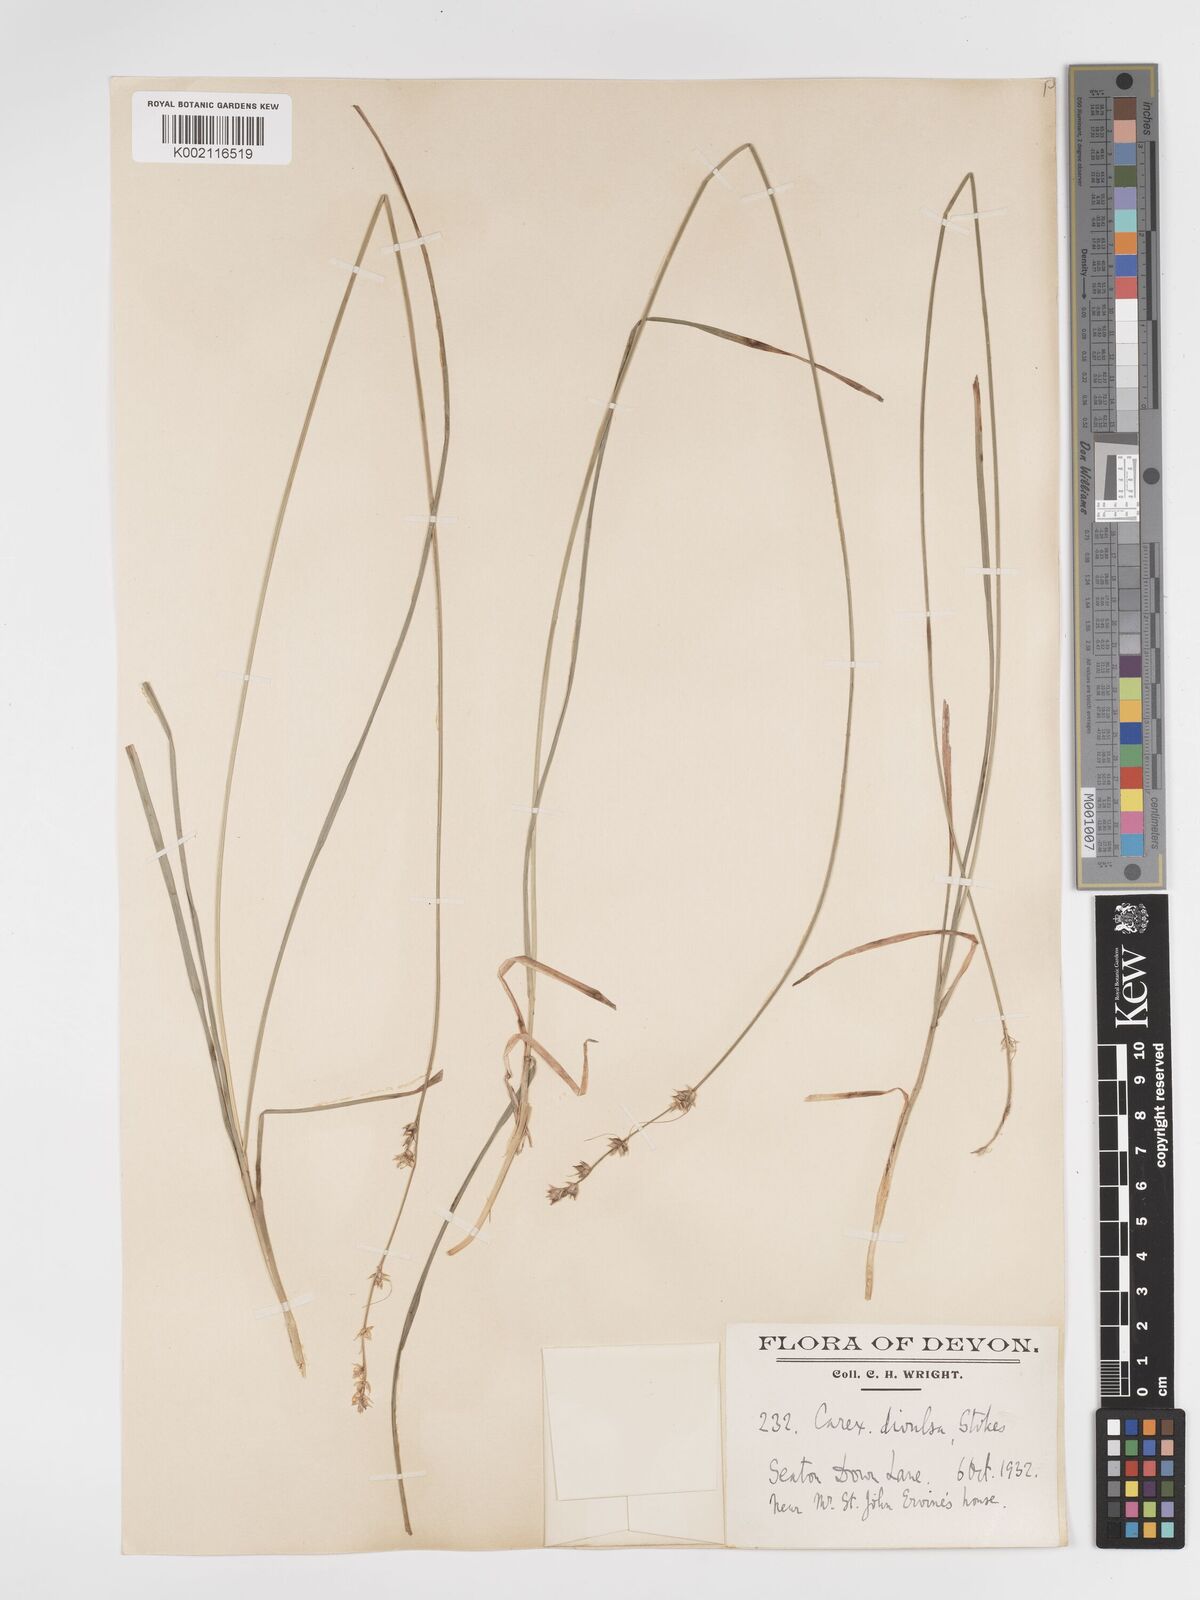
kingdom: Plantae
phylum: Tracheophyta
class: Liliopsida
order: Poales
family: Cyperaceae
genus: Carex
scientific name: Carex divulsa
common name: Grassland sedge
